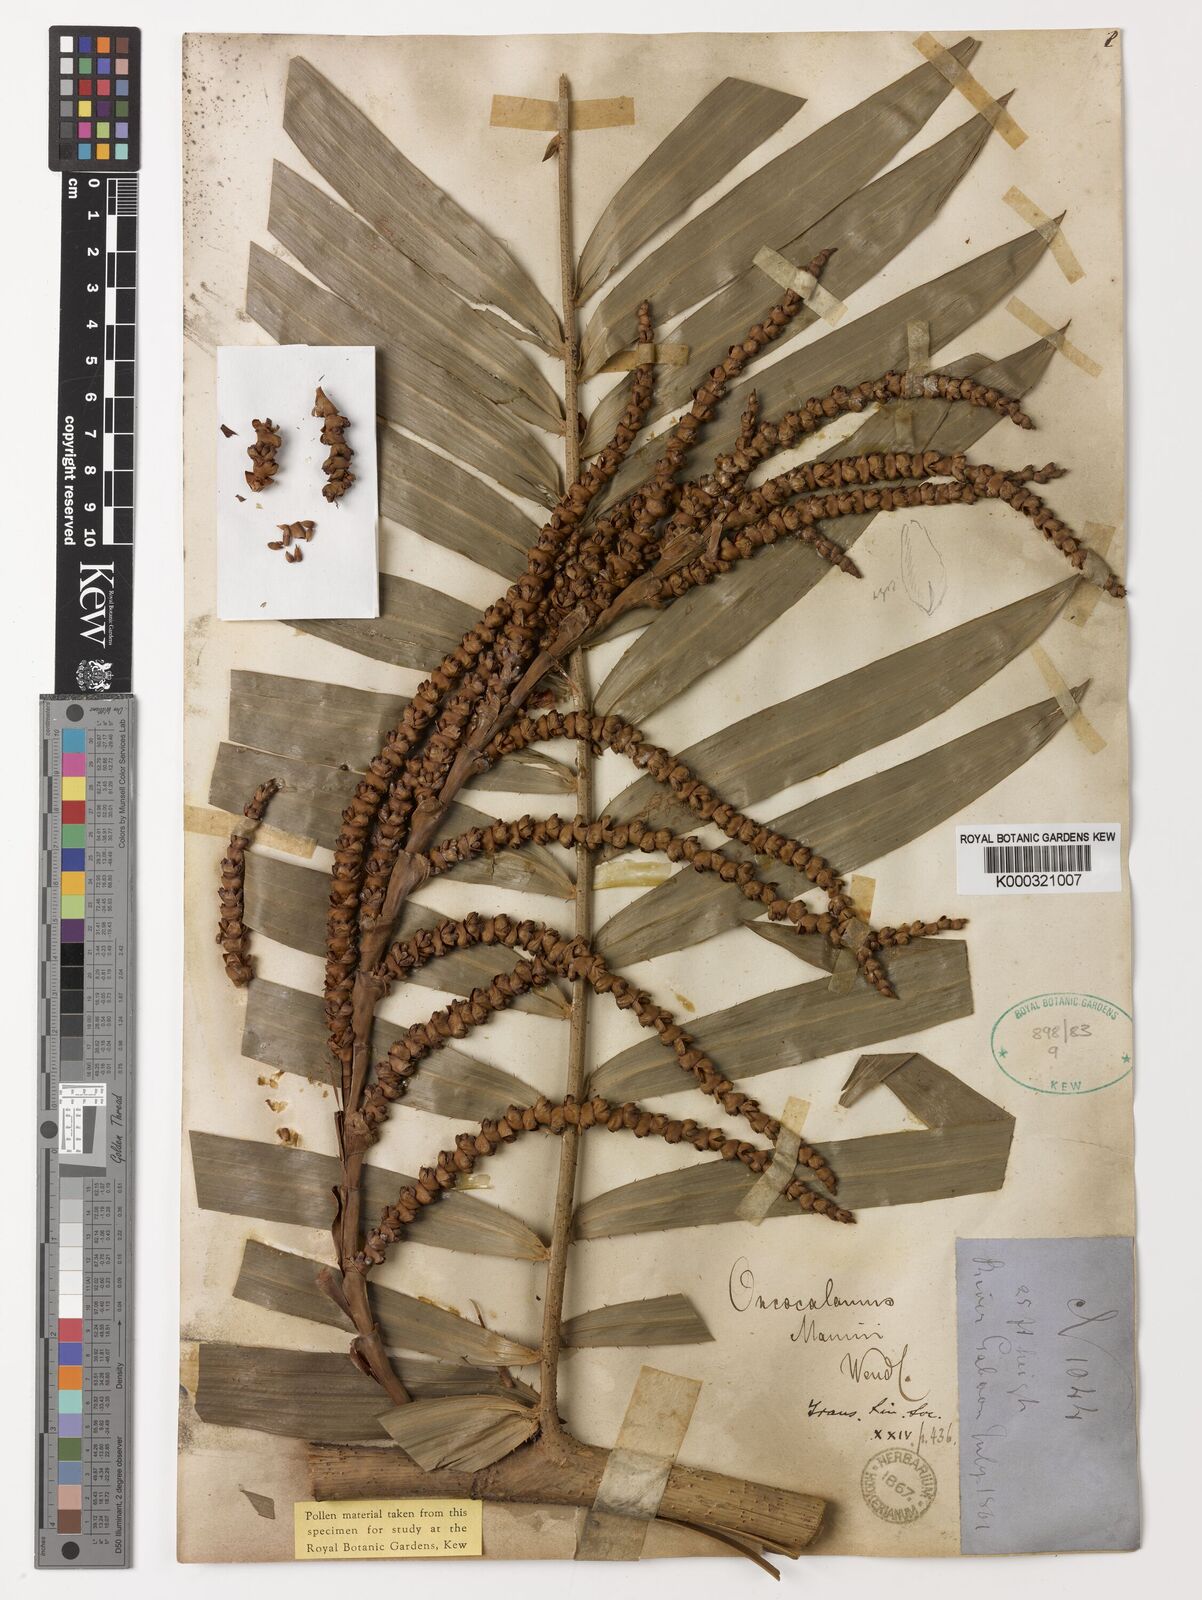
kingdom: Plantae
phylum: Tracheophyta
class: Liliopsida
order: Arecales
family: Arecaceae
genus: Oncocalamus
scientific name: Oncocalamus mannii
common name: Rattan
